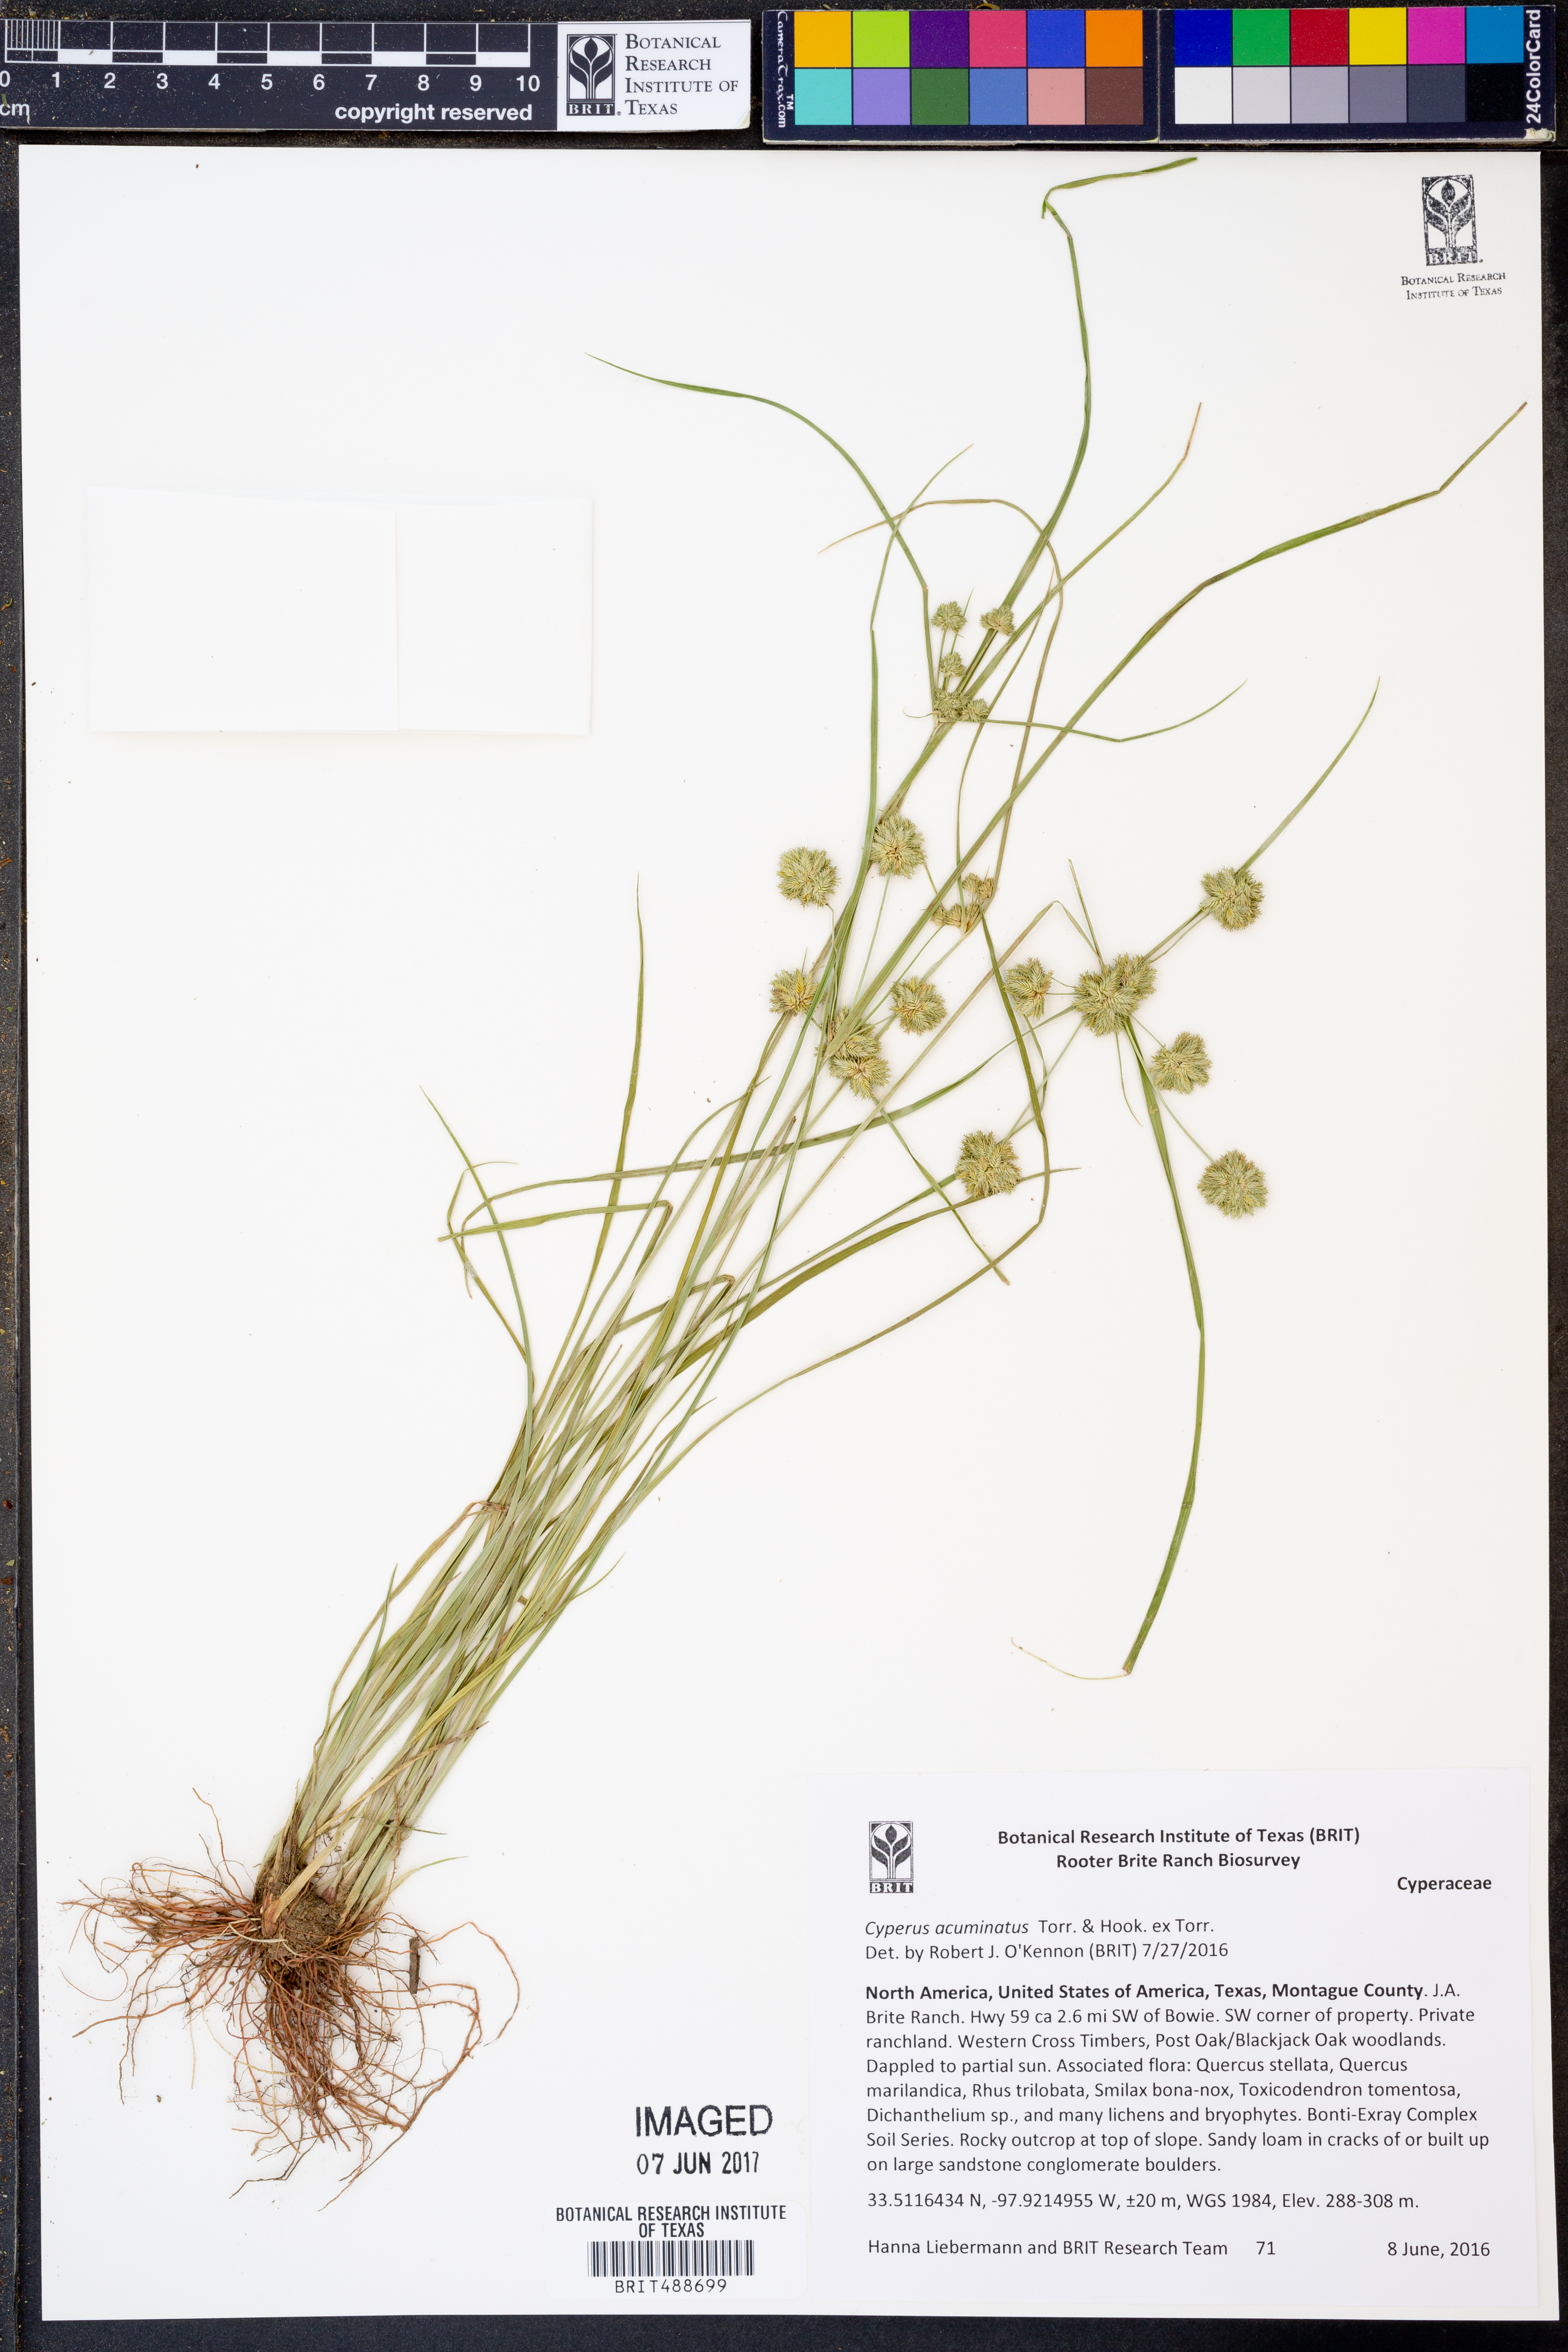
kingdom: Plantae
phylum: Tracheophyta
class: Liliopsida
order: Poales
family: Cyperaceae
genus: Cyperus
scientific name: Cyperus acuminatus
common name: Short-pointed cyperus
